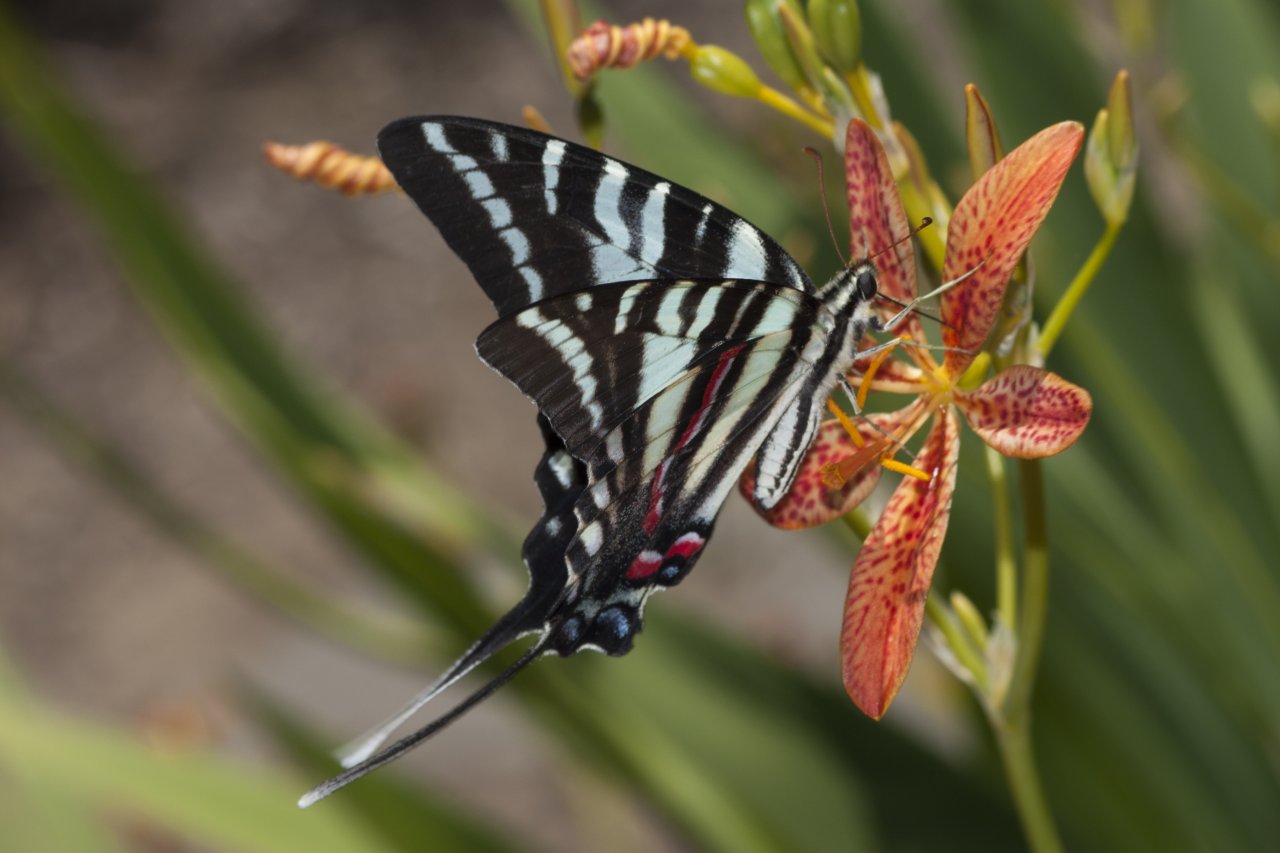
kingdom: Animalia
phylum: Arthropoda
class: Insecta
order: Lepidoptera
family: Papilionidae
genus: Protographium
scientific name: Protographium marcellus
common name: Zebra Swallowtail
